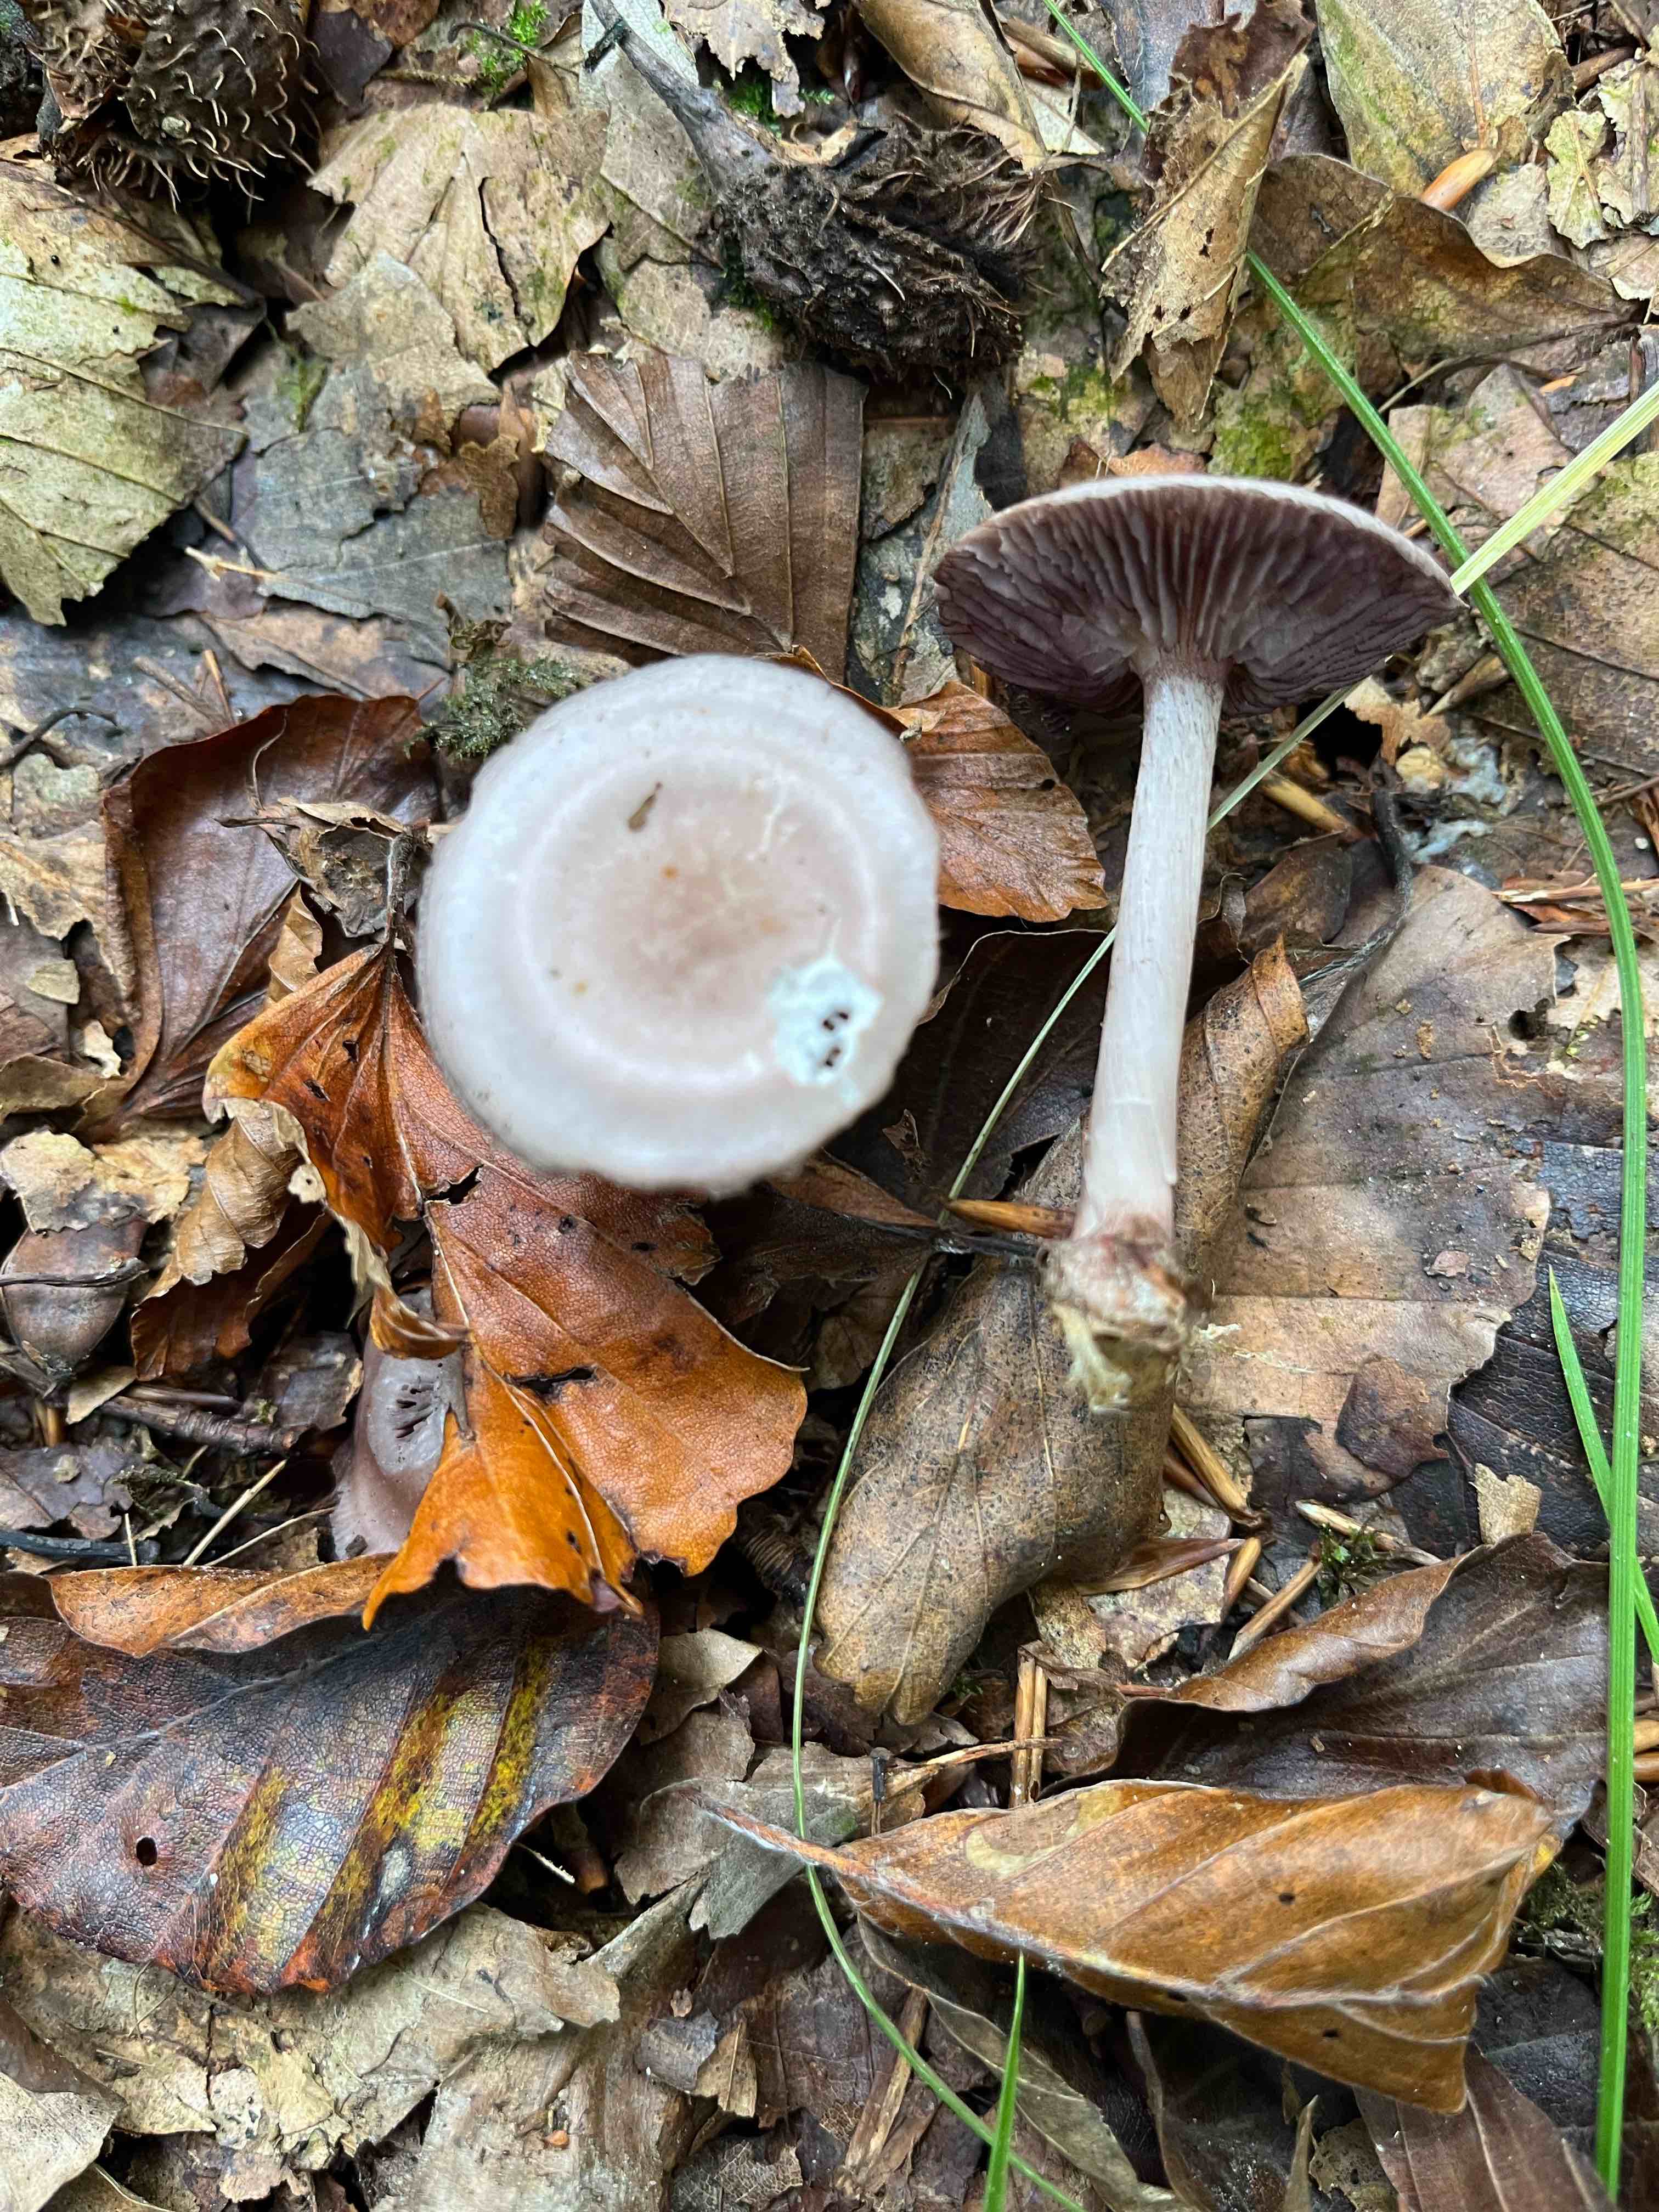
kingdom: Fungi
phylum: Basidiomycota
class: Agaricomycetes
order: Agaricales
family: Mycenaceae
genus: Mycena
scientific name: Mycena pelianthina
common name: mørkbladet huesvamp
